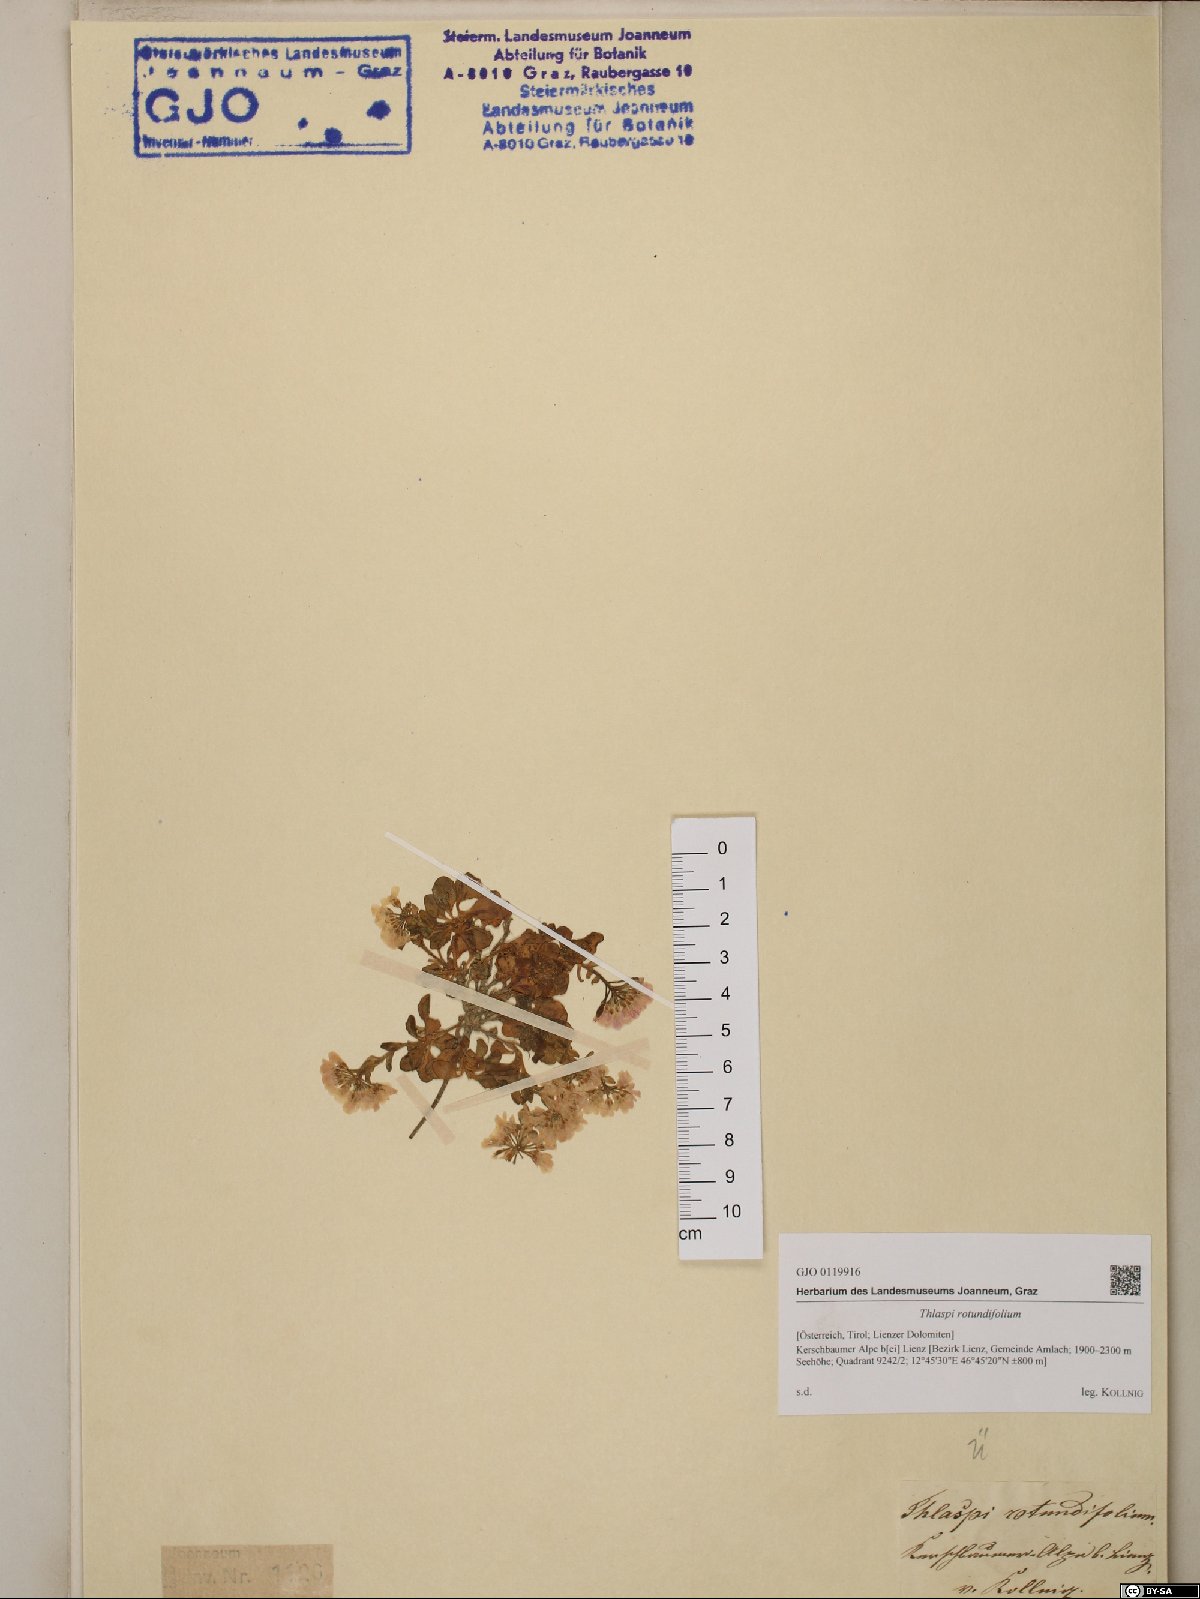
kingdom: Plantae
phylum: Tracheophyta
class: Magnoliopsida
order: Brassicales
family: Brassicaceae
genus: Noccaea
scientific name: Noccaea rotundifolia
